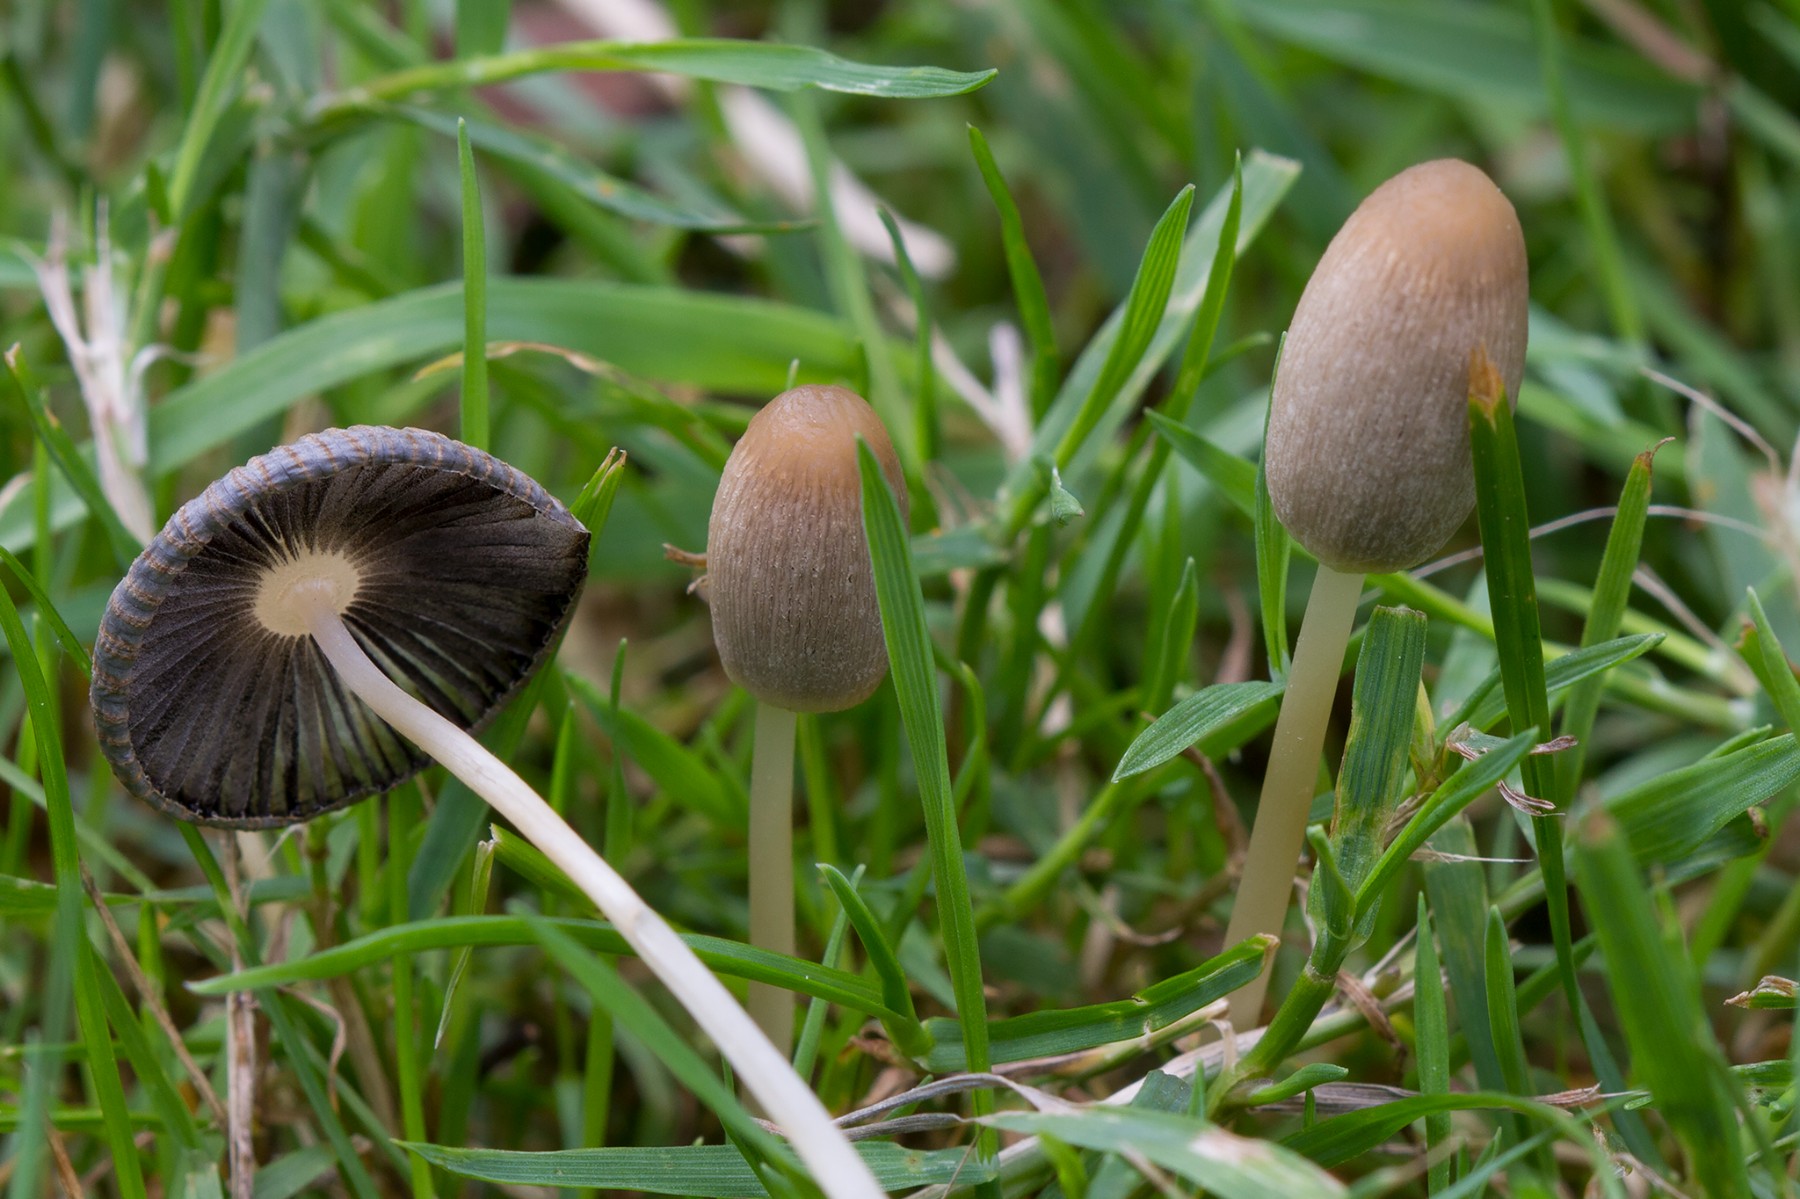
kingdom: Fungi
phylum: Basidiomycota
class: Agaricomycetes
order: Agaricales
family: Psathyrellaceae
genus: Parasola
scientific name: Parasola lactea
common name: glat hjulhat
